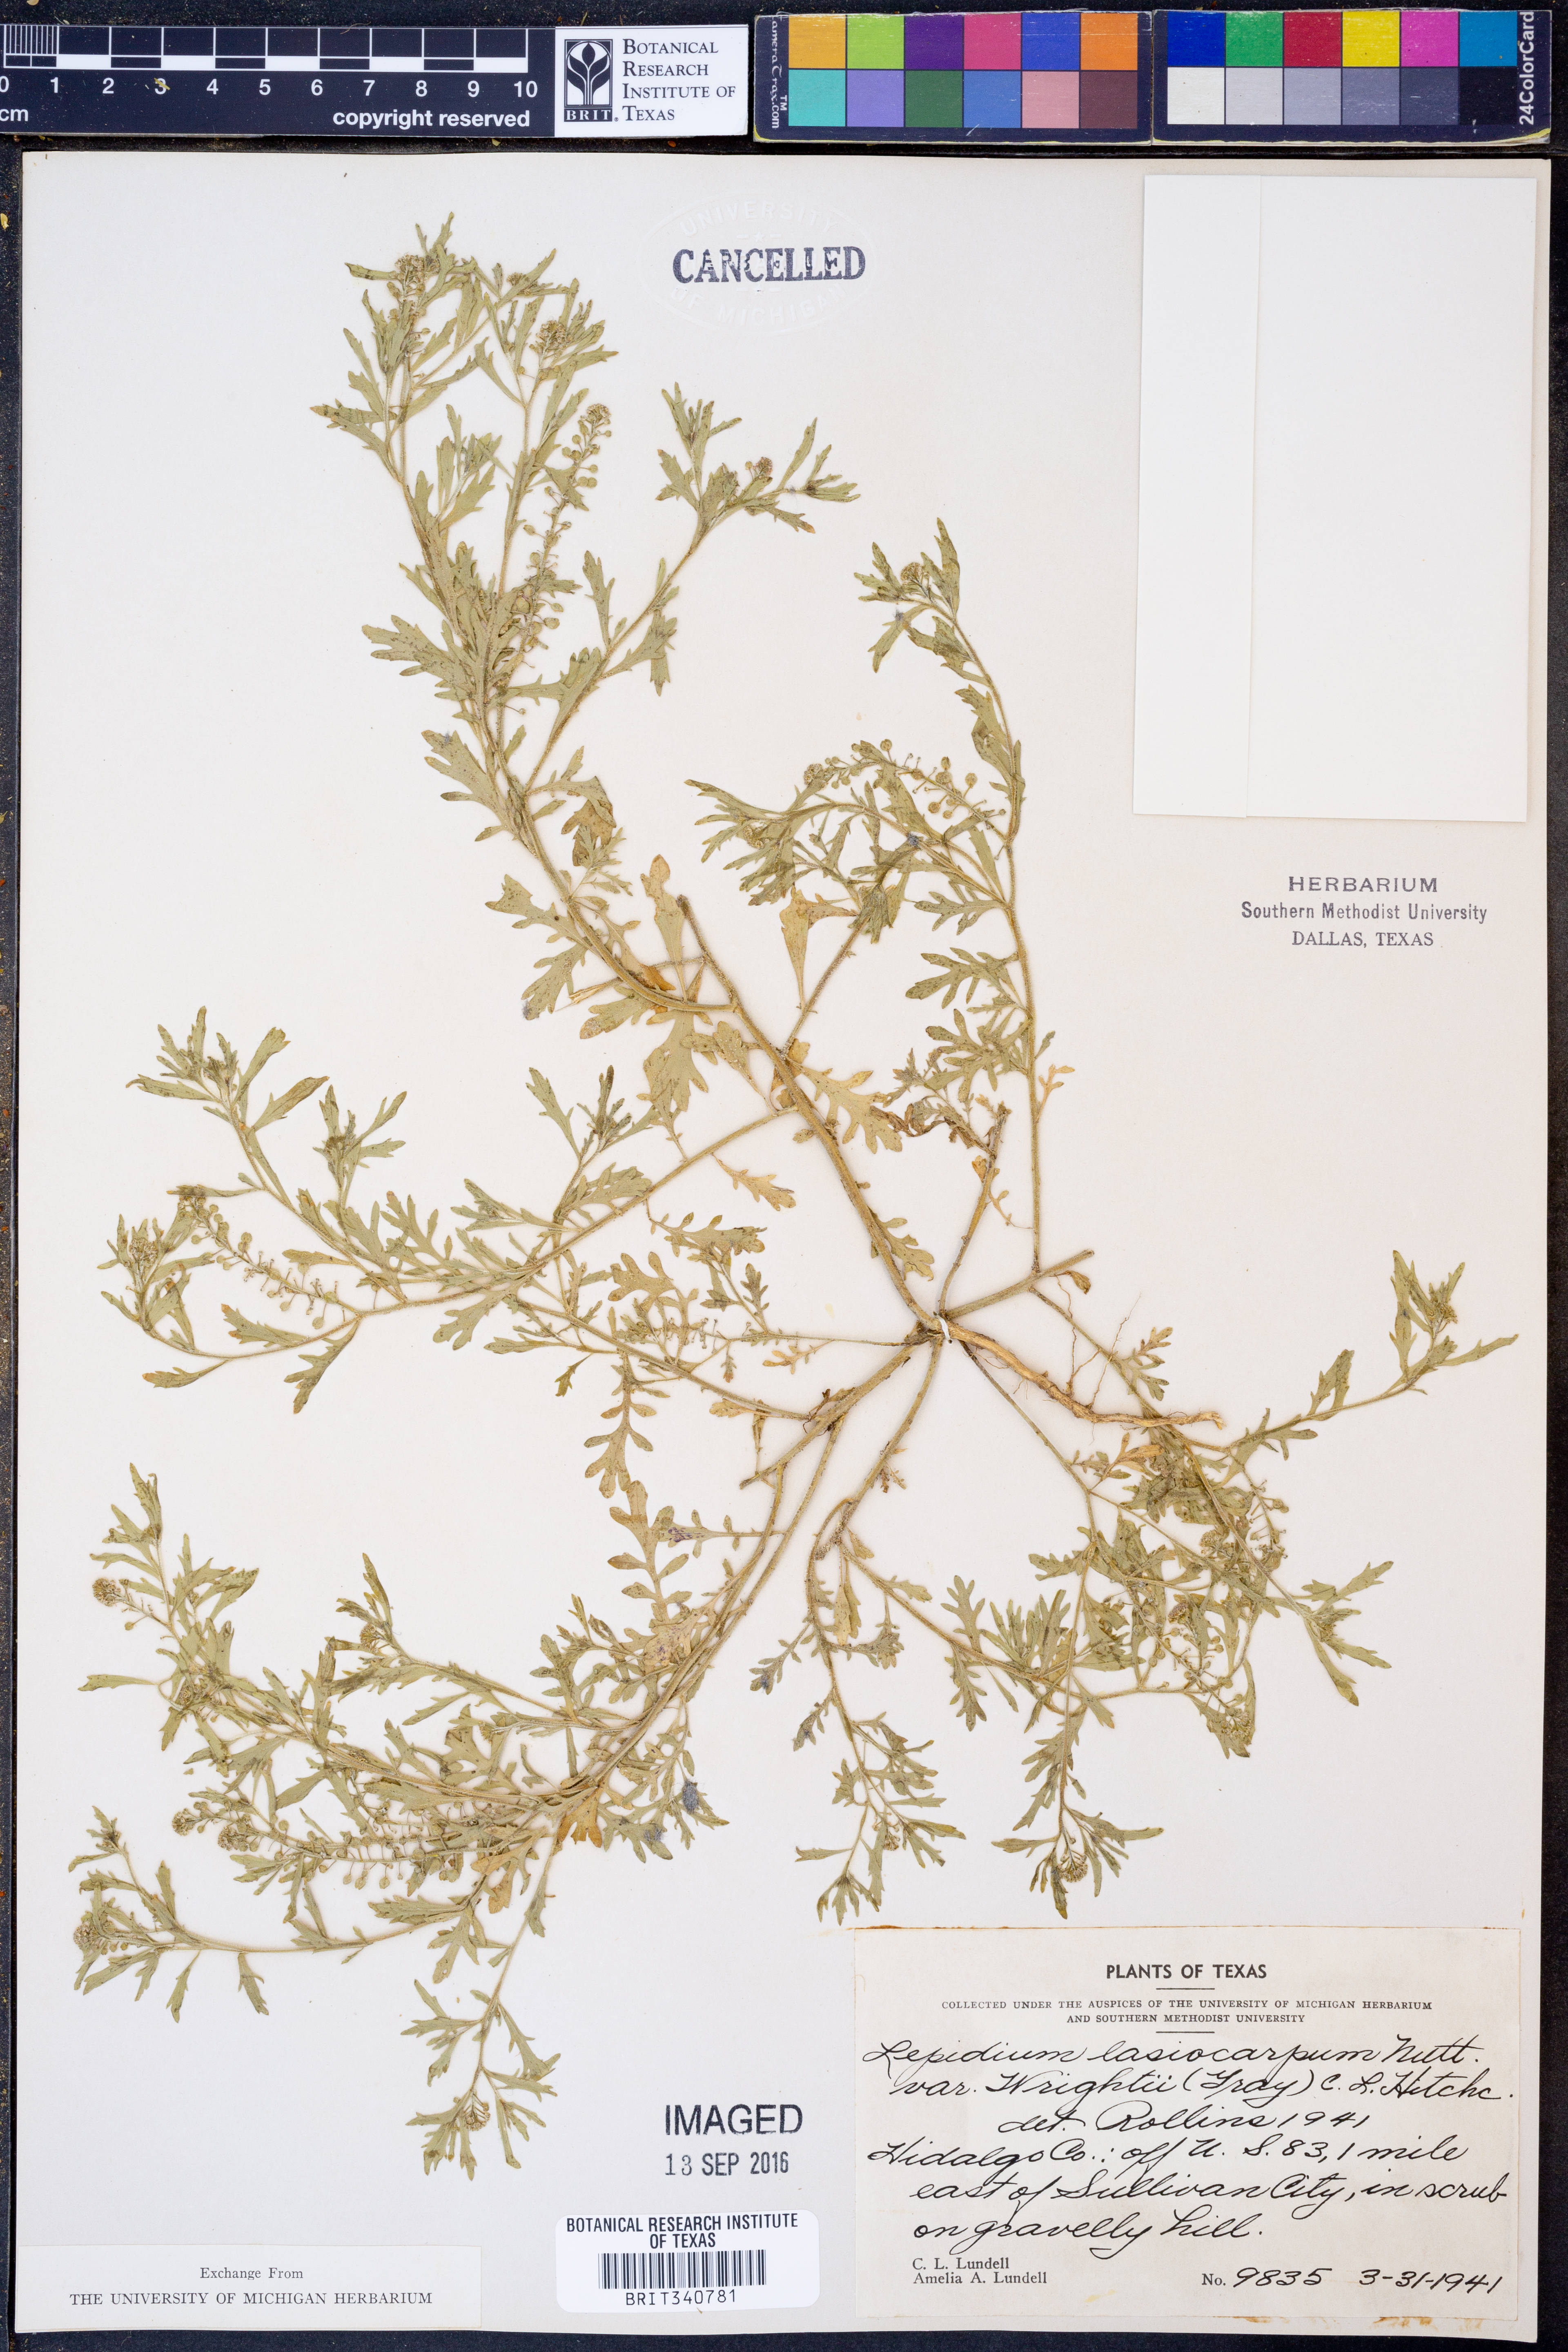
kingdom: Plantae
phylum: Tracheophyta
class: Magnoliopsida
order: Brassicales
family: Brassicaceae
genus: Lepidium
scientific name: Lepidium lasiocarpum
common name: Hairy-pod pepperwort
